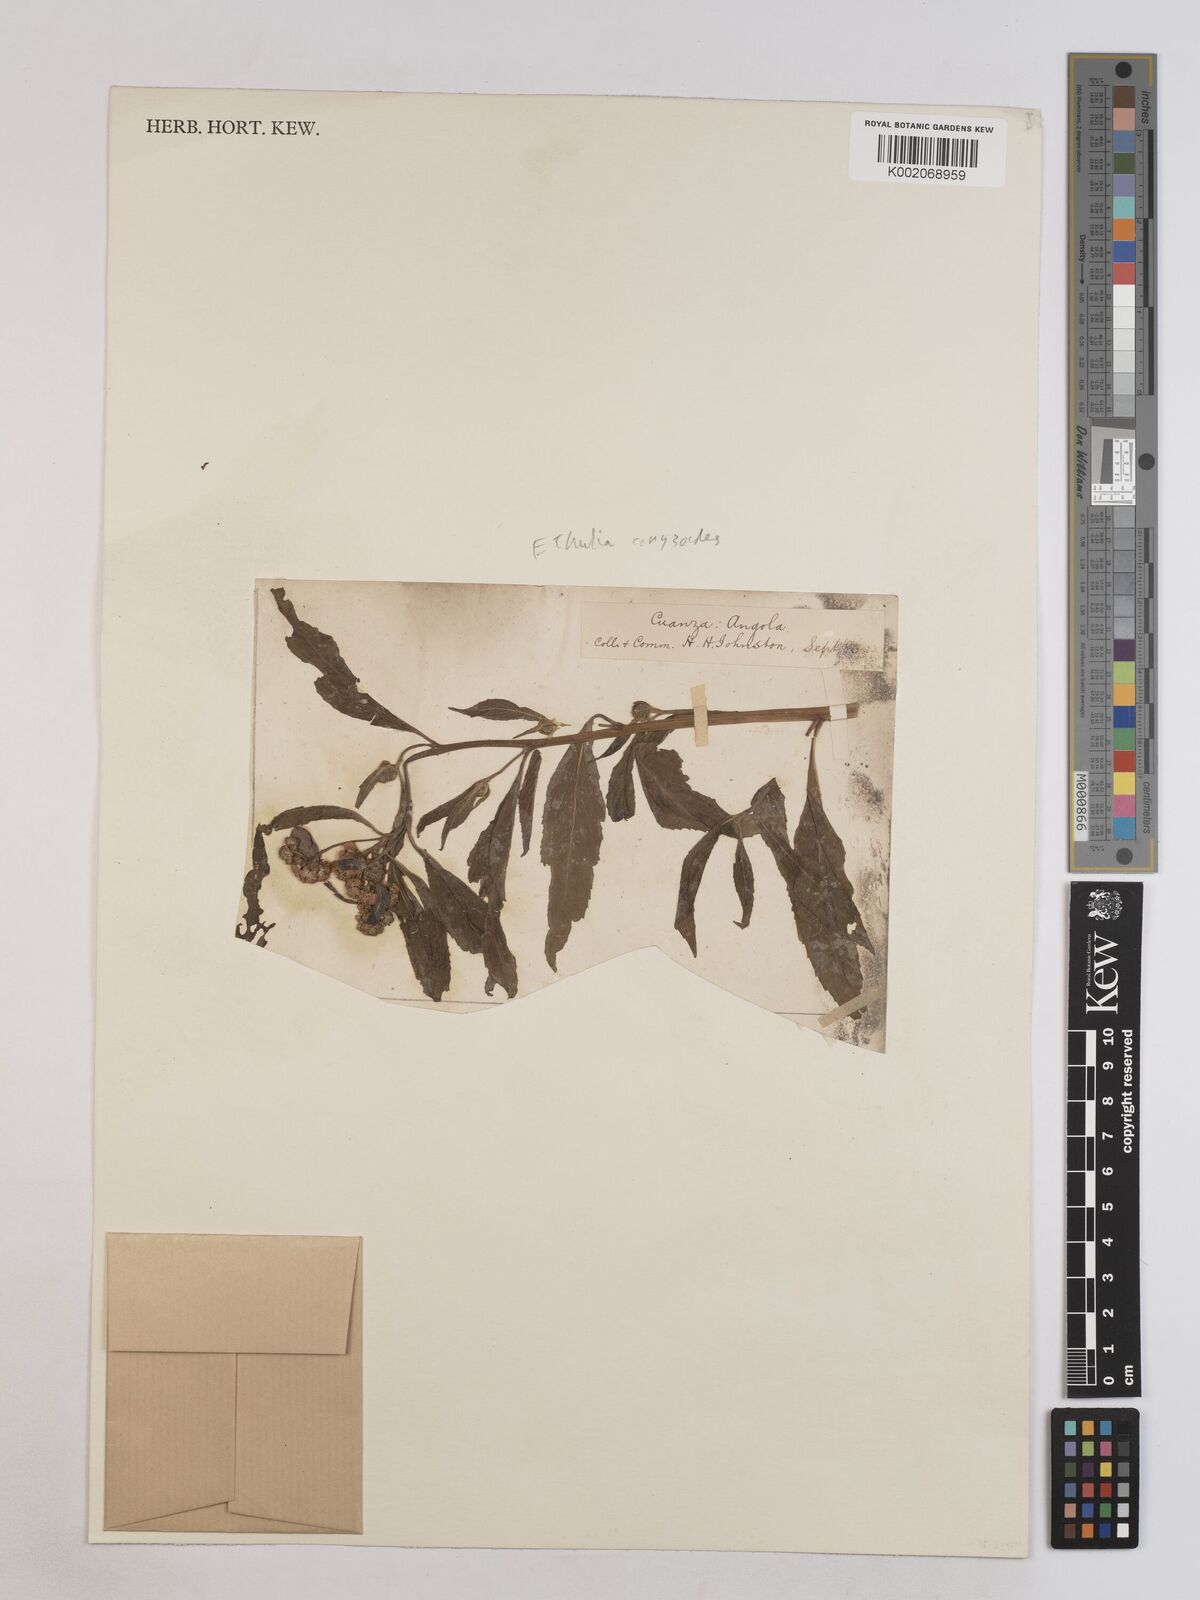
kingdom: Plantae
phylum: Tracheophyta
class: Magnoliopsida
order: Asterales
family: Asteraceae
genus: Ethulia
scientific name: Ethulia conyzoides
